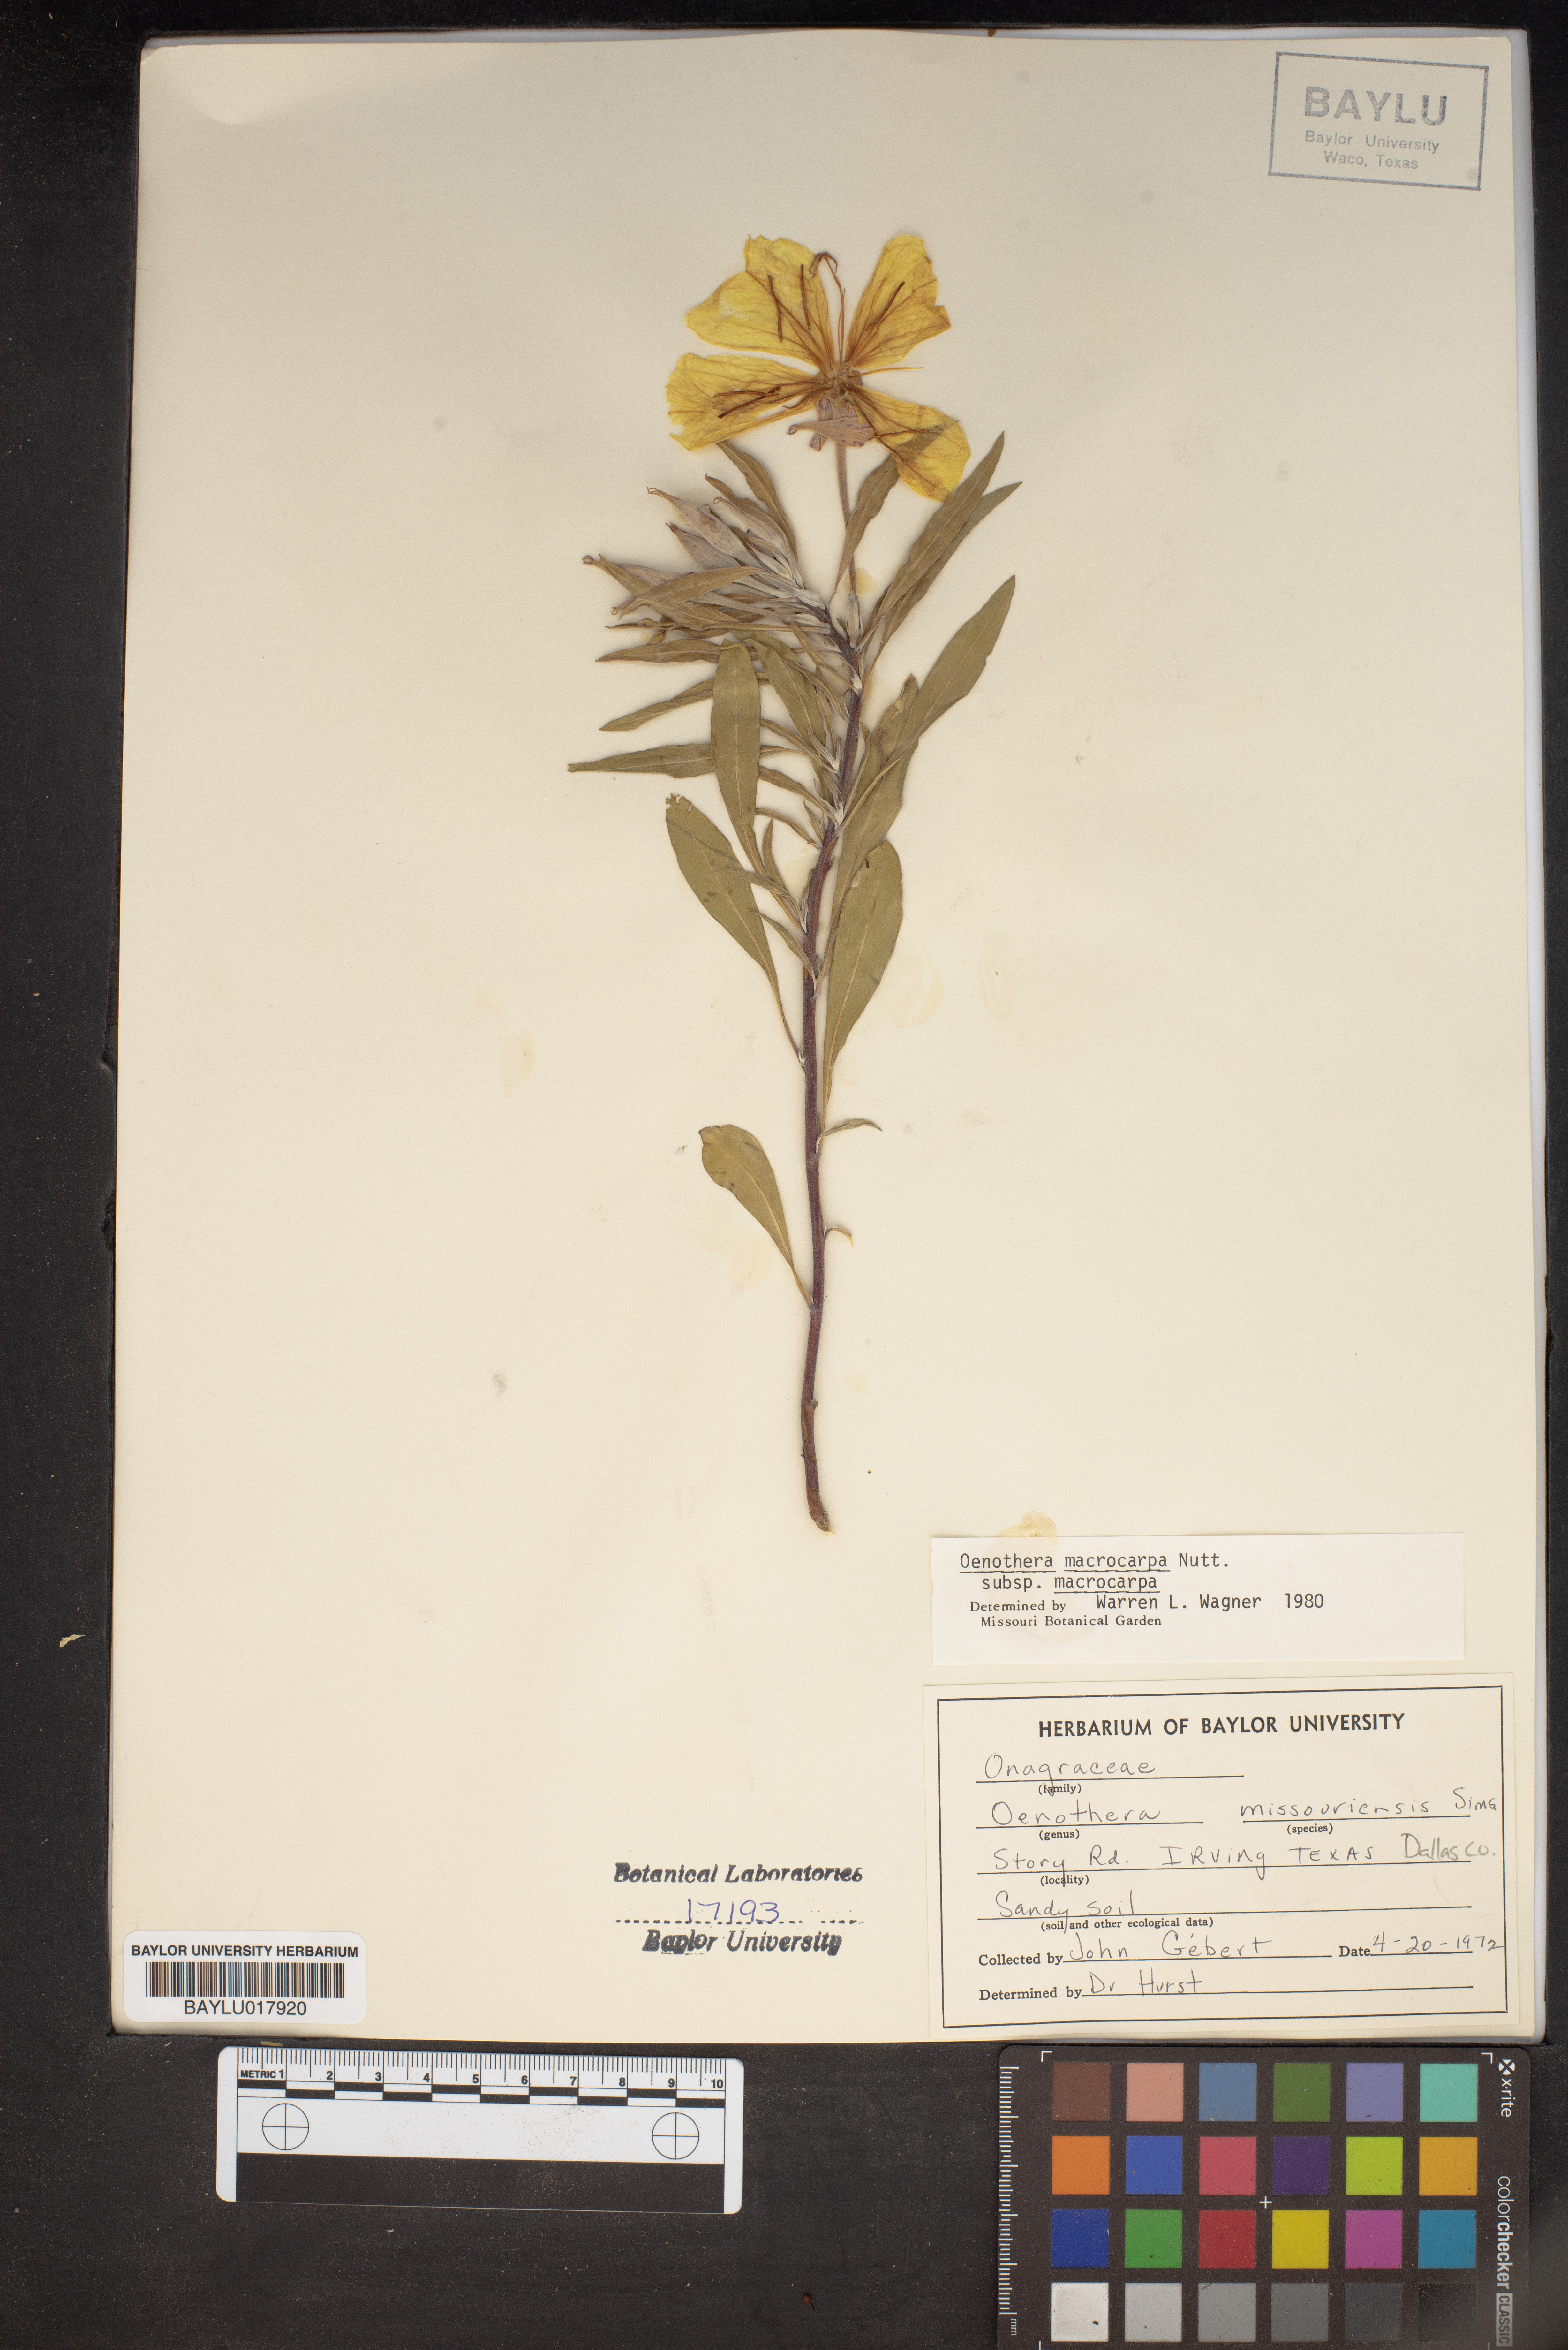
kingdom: Plantae
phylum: Tracheophyta
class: Magnoliopsida
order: Myrtales
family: Onagraceae
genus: Oenothera
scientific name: Oenothera macrocarpa
